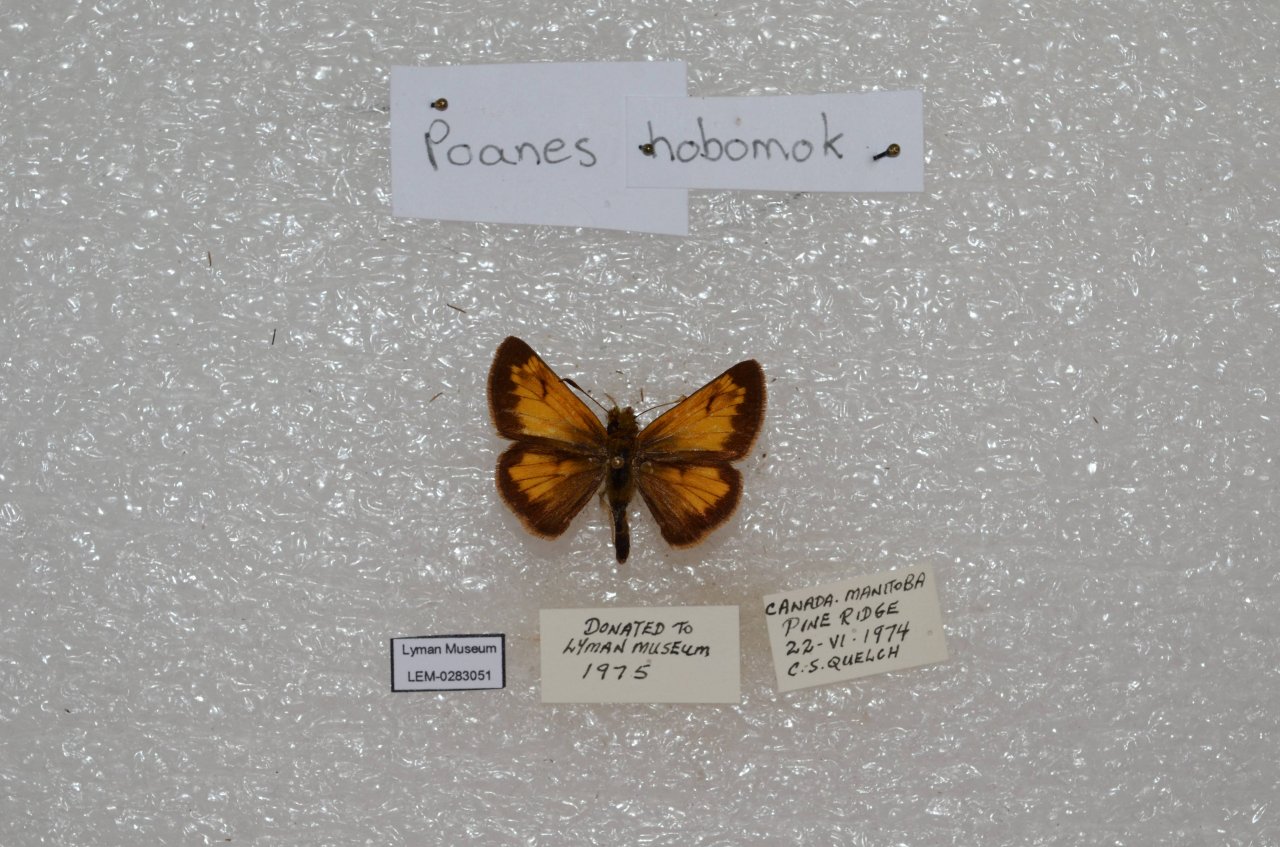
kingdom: Animalia
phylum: Arthropoda
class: Insecta
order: Lepidoptera
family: Hesperiidae
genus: Lon
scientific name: Lon hobomok
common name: Hobomok Skipper
